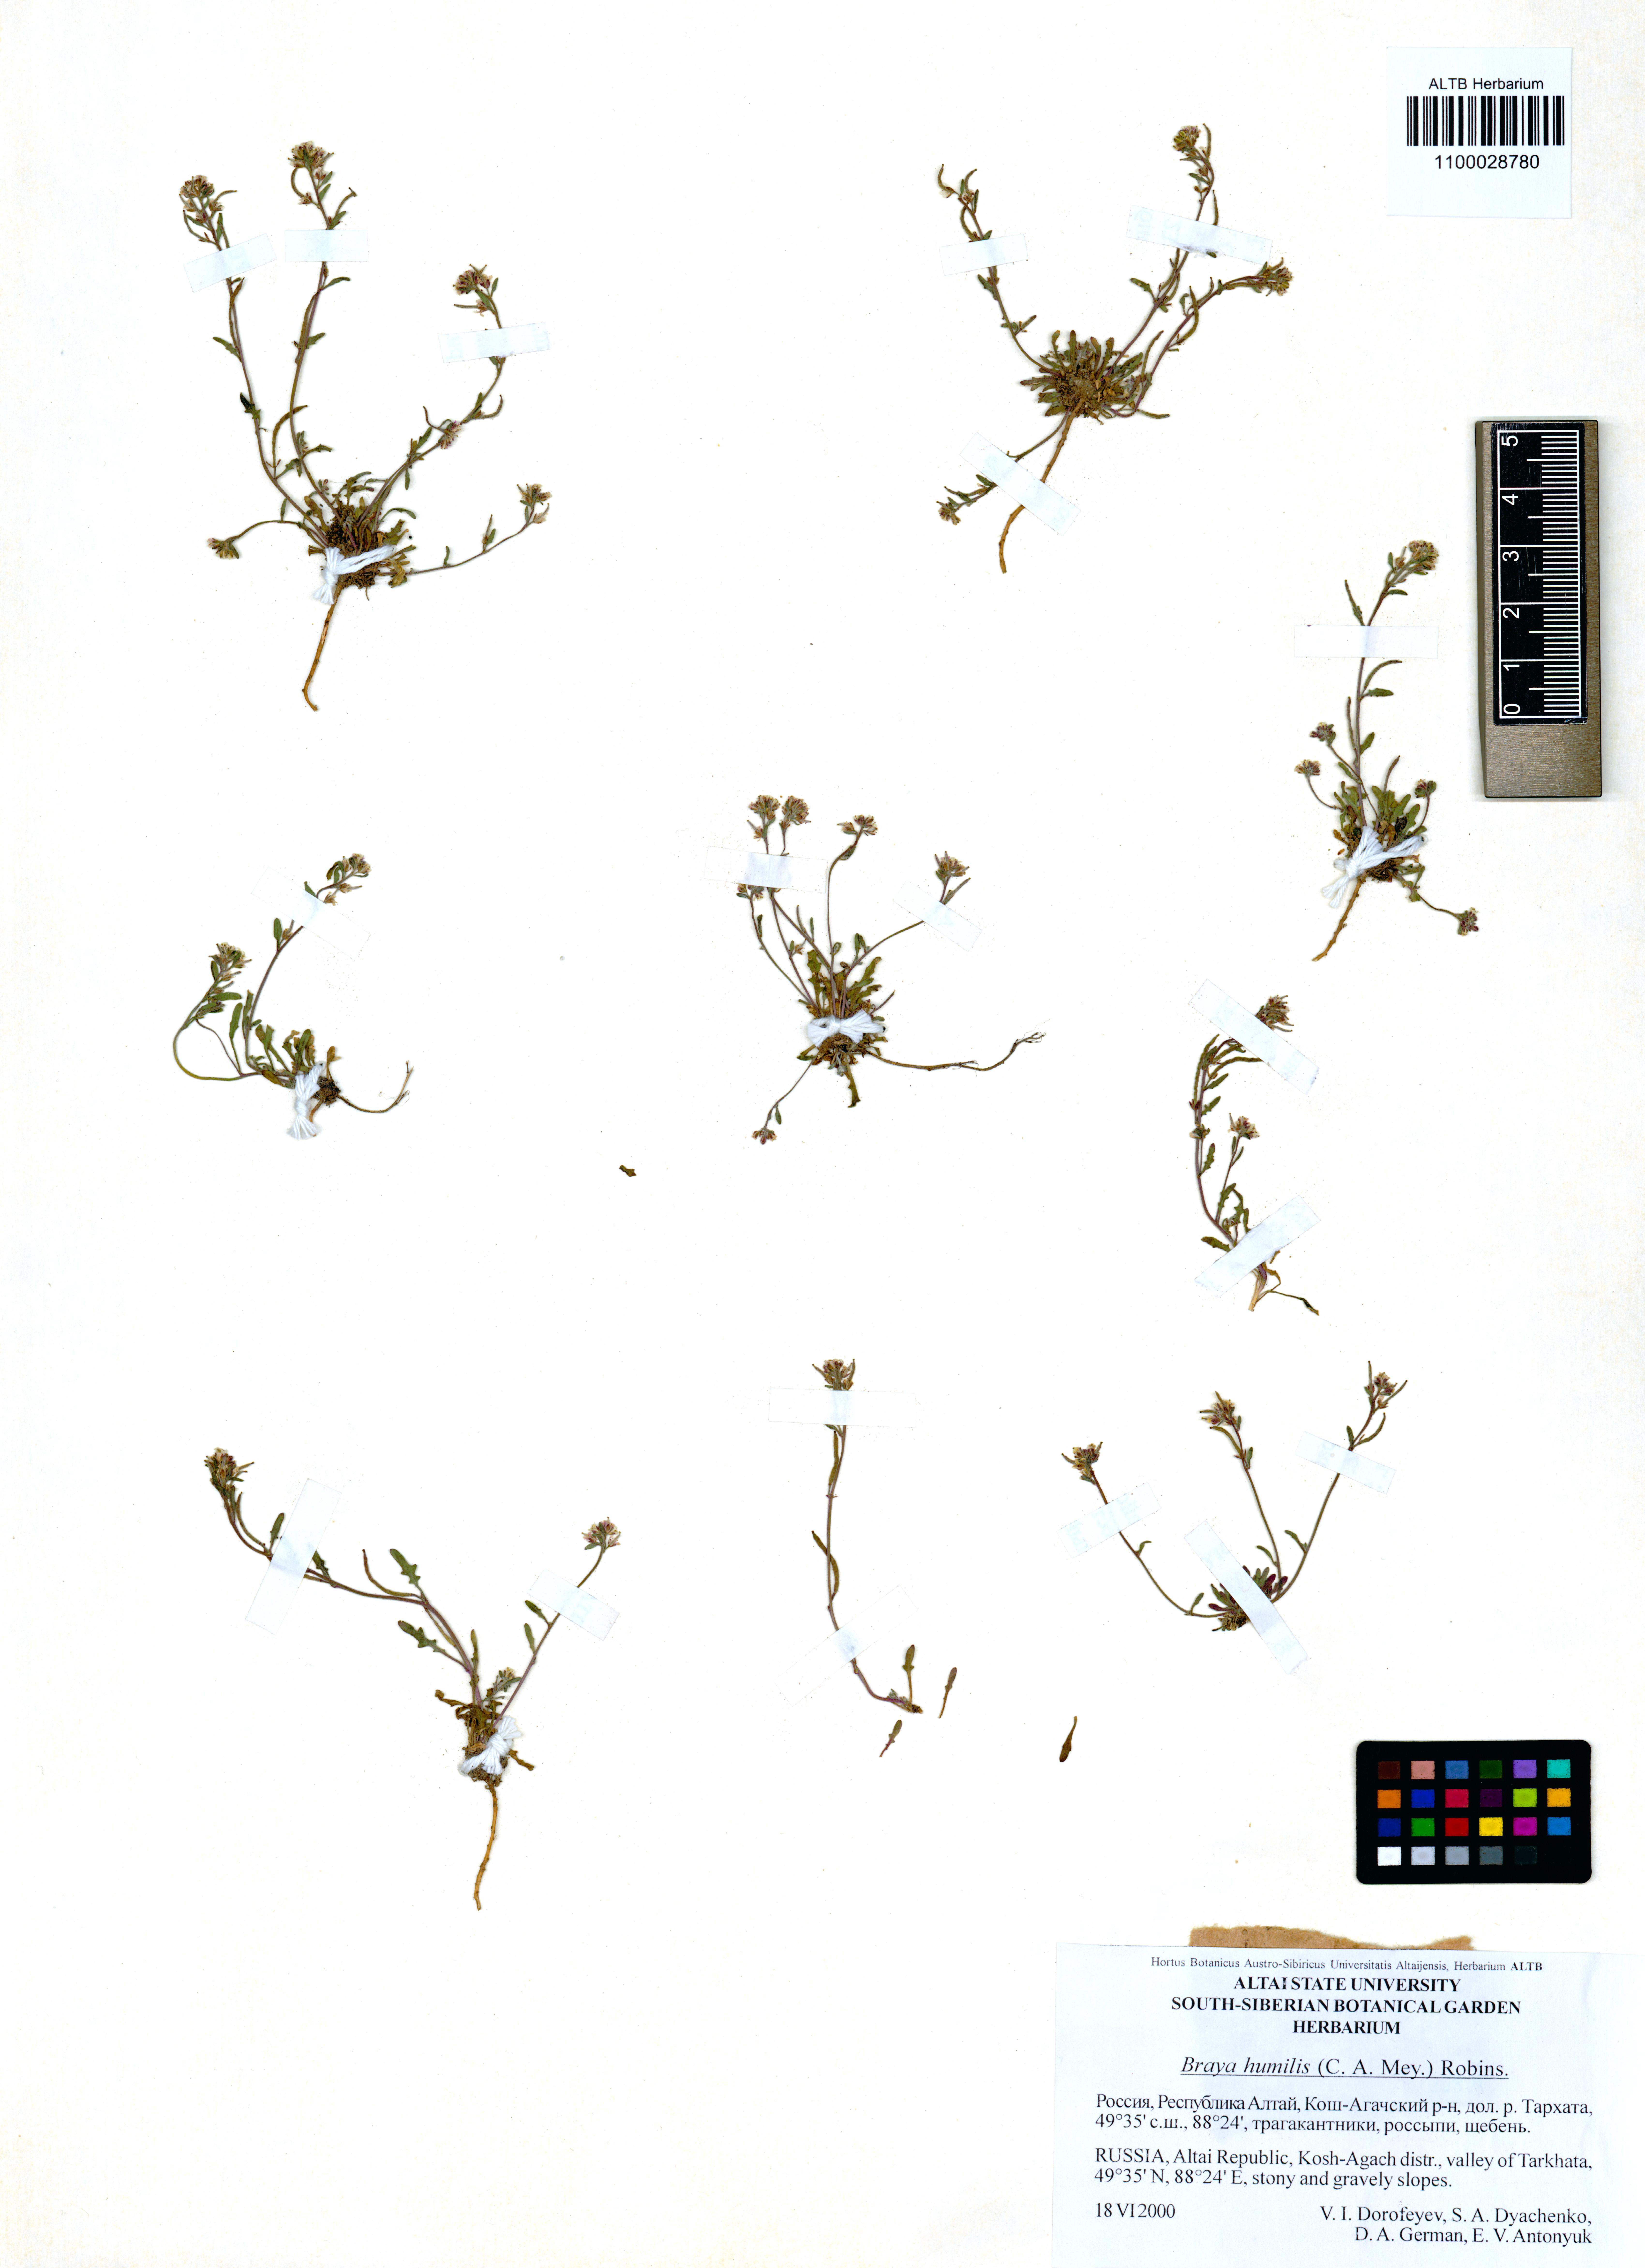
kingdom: Plantae
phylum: Tracheophyta
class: Magnoliopsida
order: Brassicales
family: Brassicaceae
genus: Braya
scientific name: Braya humilis
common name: Alpine northern rockcress
